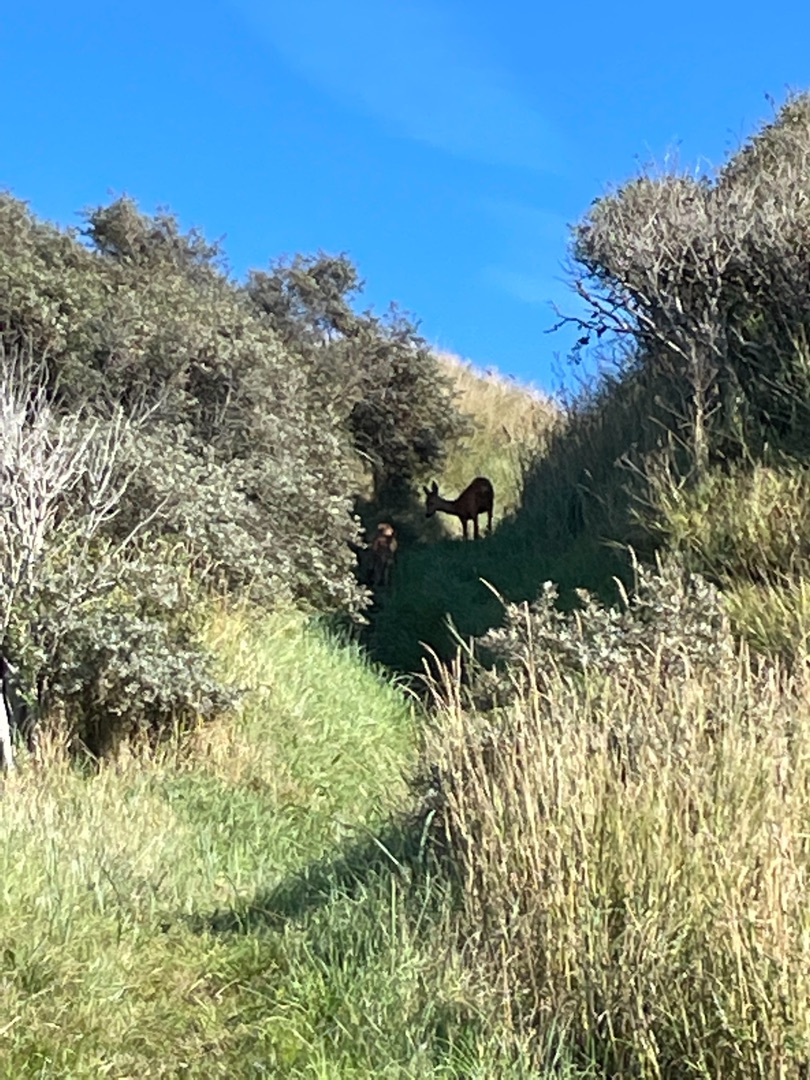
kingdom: Animalia
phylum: Chordata
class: Mammalia
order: Artiodactyla
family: Cervidae
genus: Capreolus
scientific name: Capreolus capreolus
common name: Rådyr
